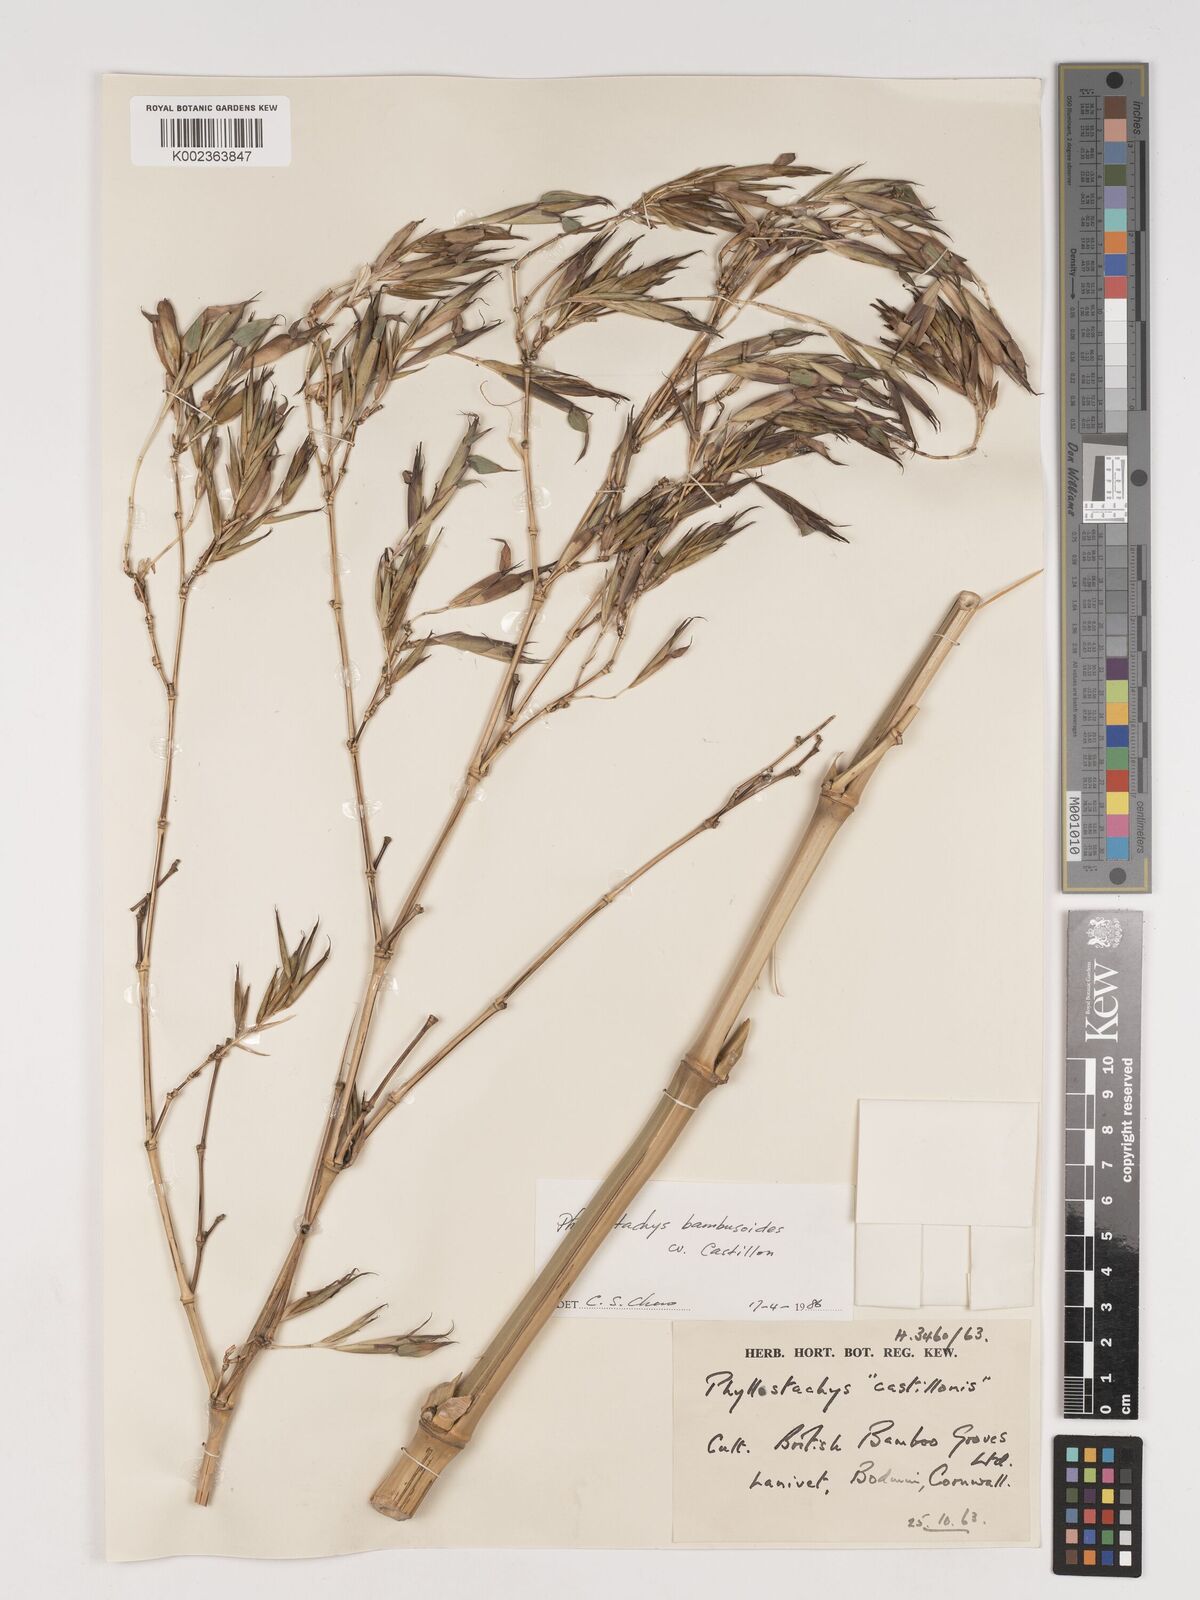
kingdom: Plantae
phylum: Tracheophyta
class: Liliopsida
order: Poales
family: Poaceae
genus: Phyllostachys
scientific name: Phyllostachys reticulata
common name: Bamboo
